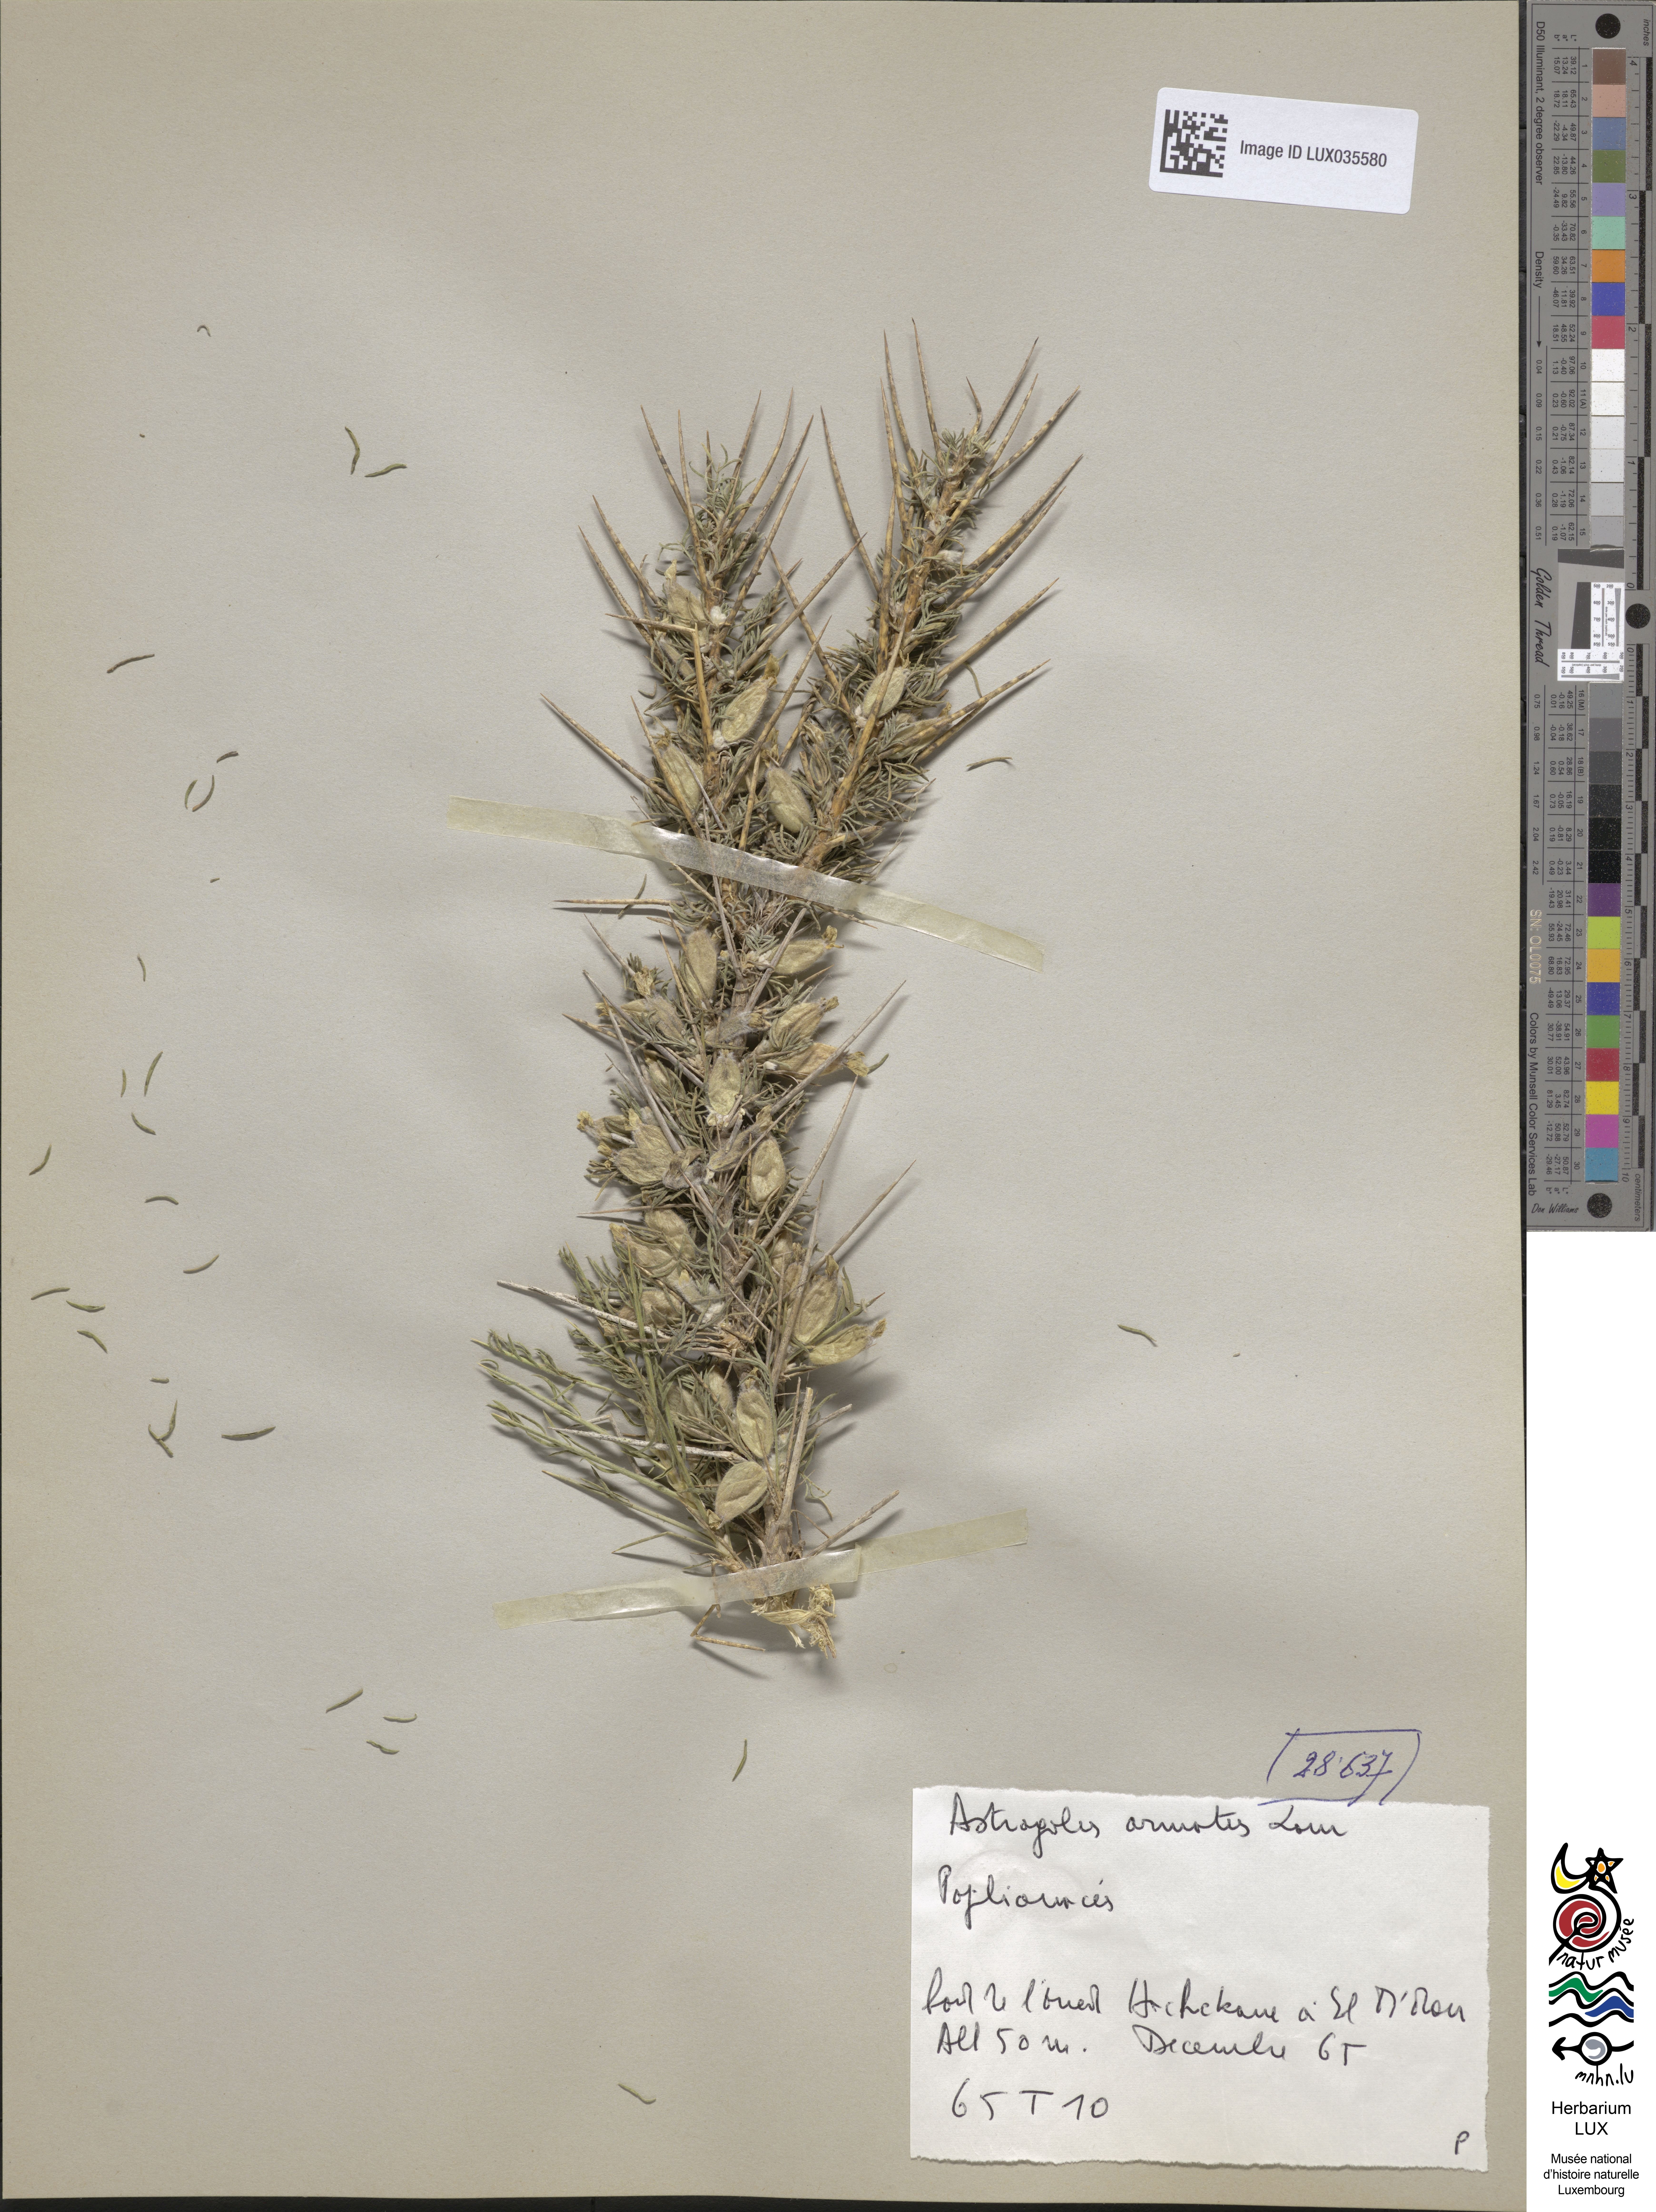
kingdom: Plantae
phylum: Tracheophyta
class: Magnoliopsida
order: Fabales
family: Fabaceae
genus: Astragalus
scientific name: Astragalus armatus
